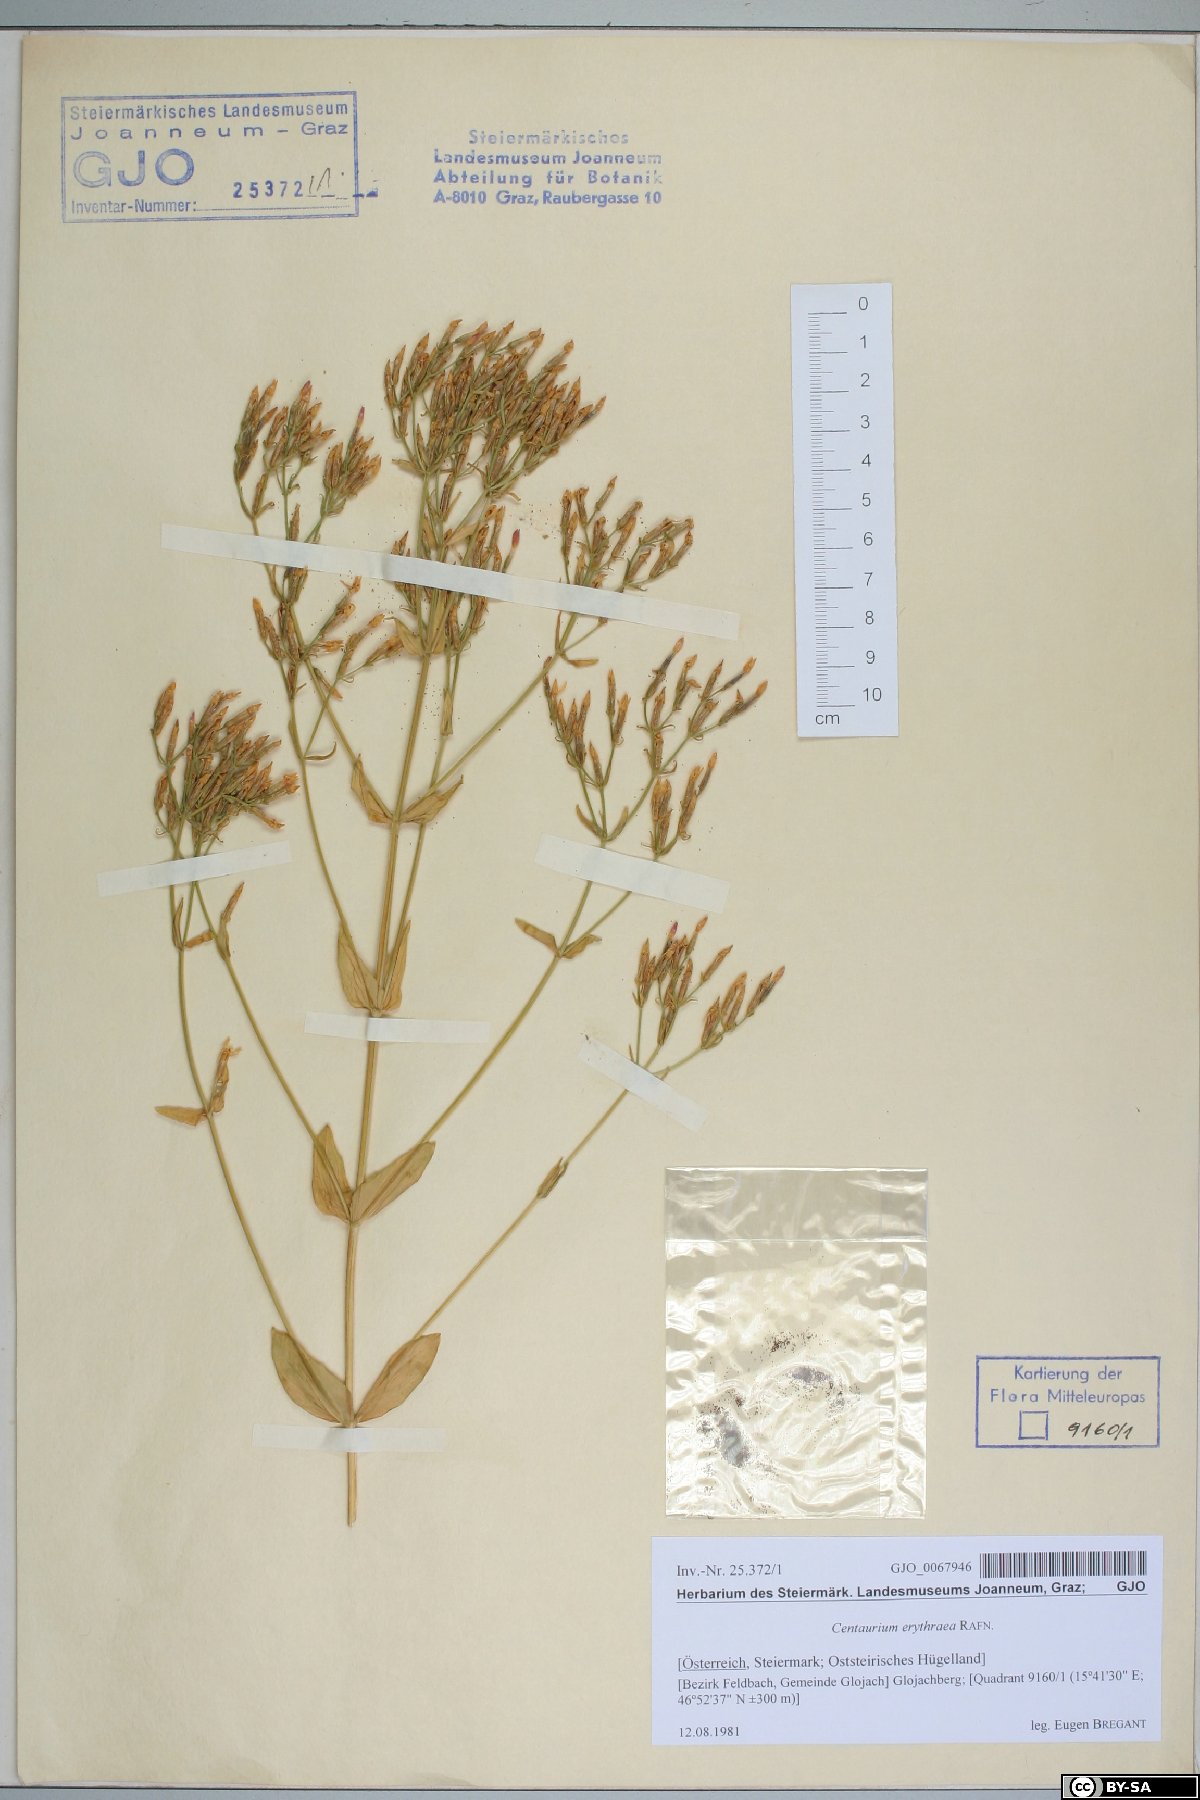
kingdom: Plantae
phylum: Tracheophyta
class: Magnoliopsida
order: Gentianales
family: Gentianaceae
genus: Centaurium
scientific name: Centaurium erythraea
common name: Common centaury
